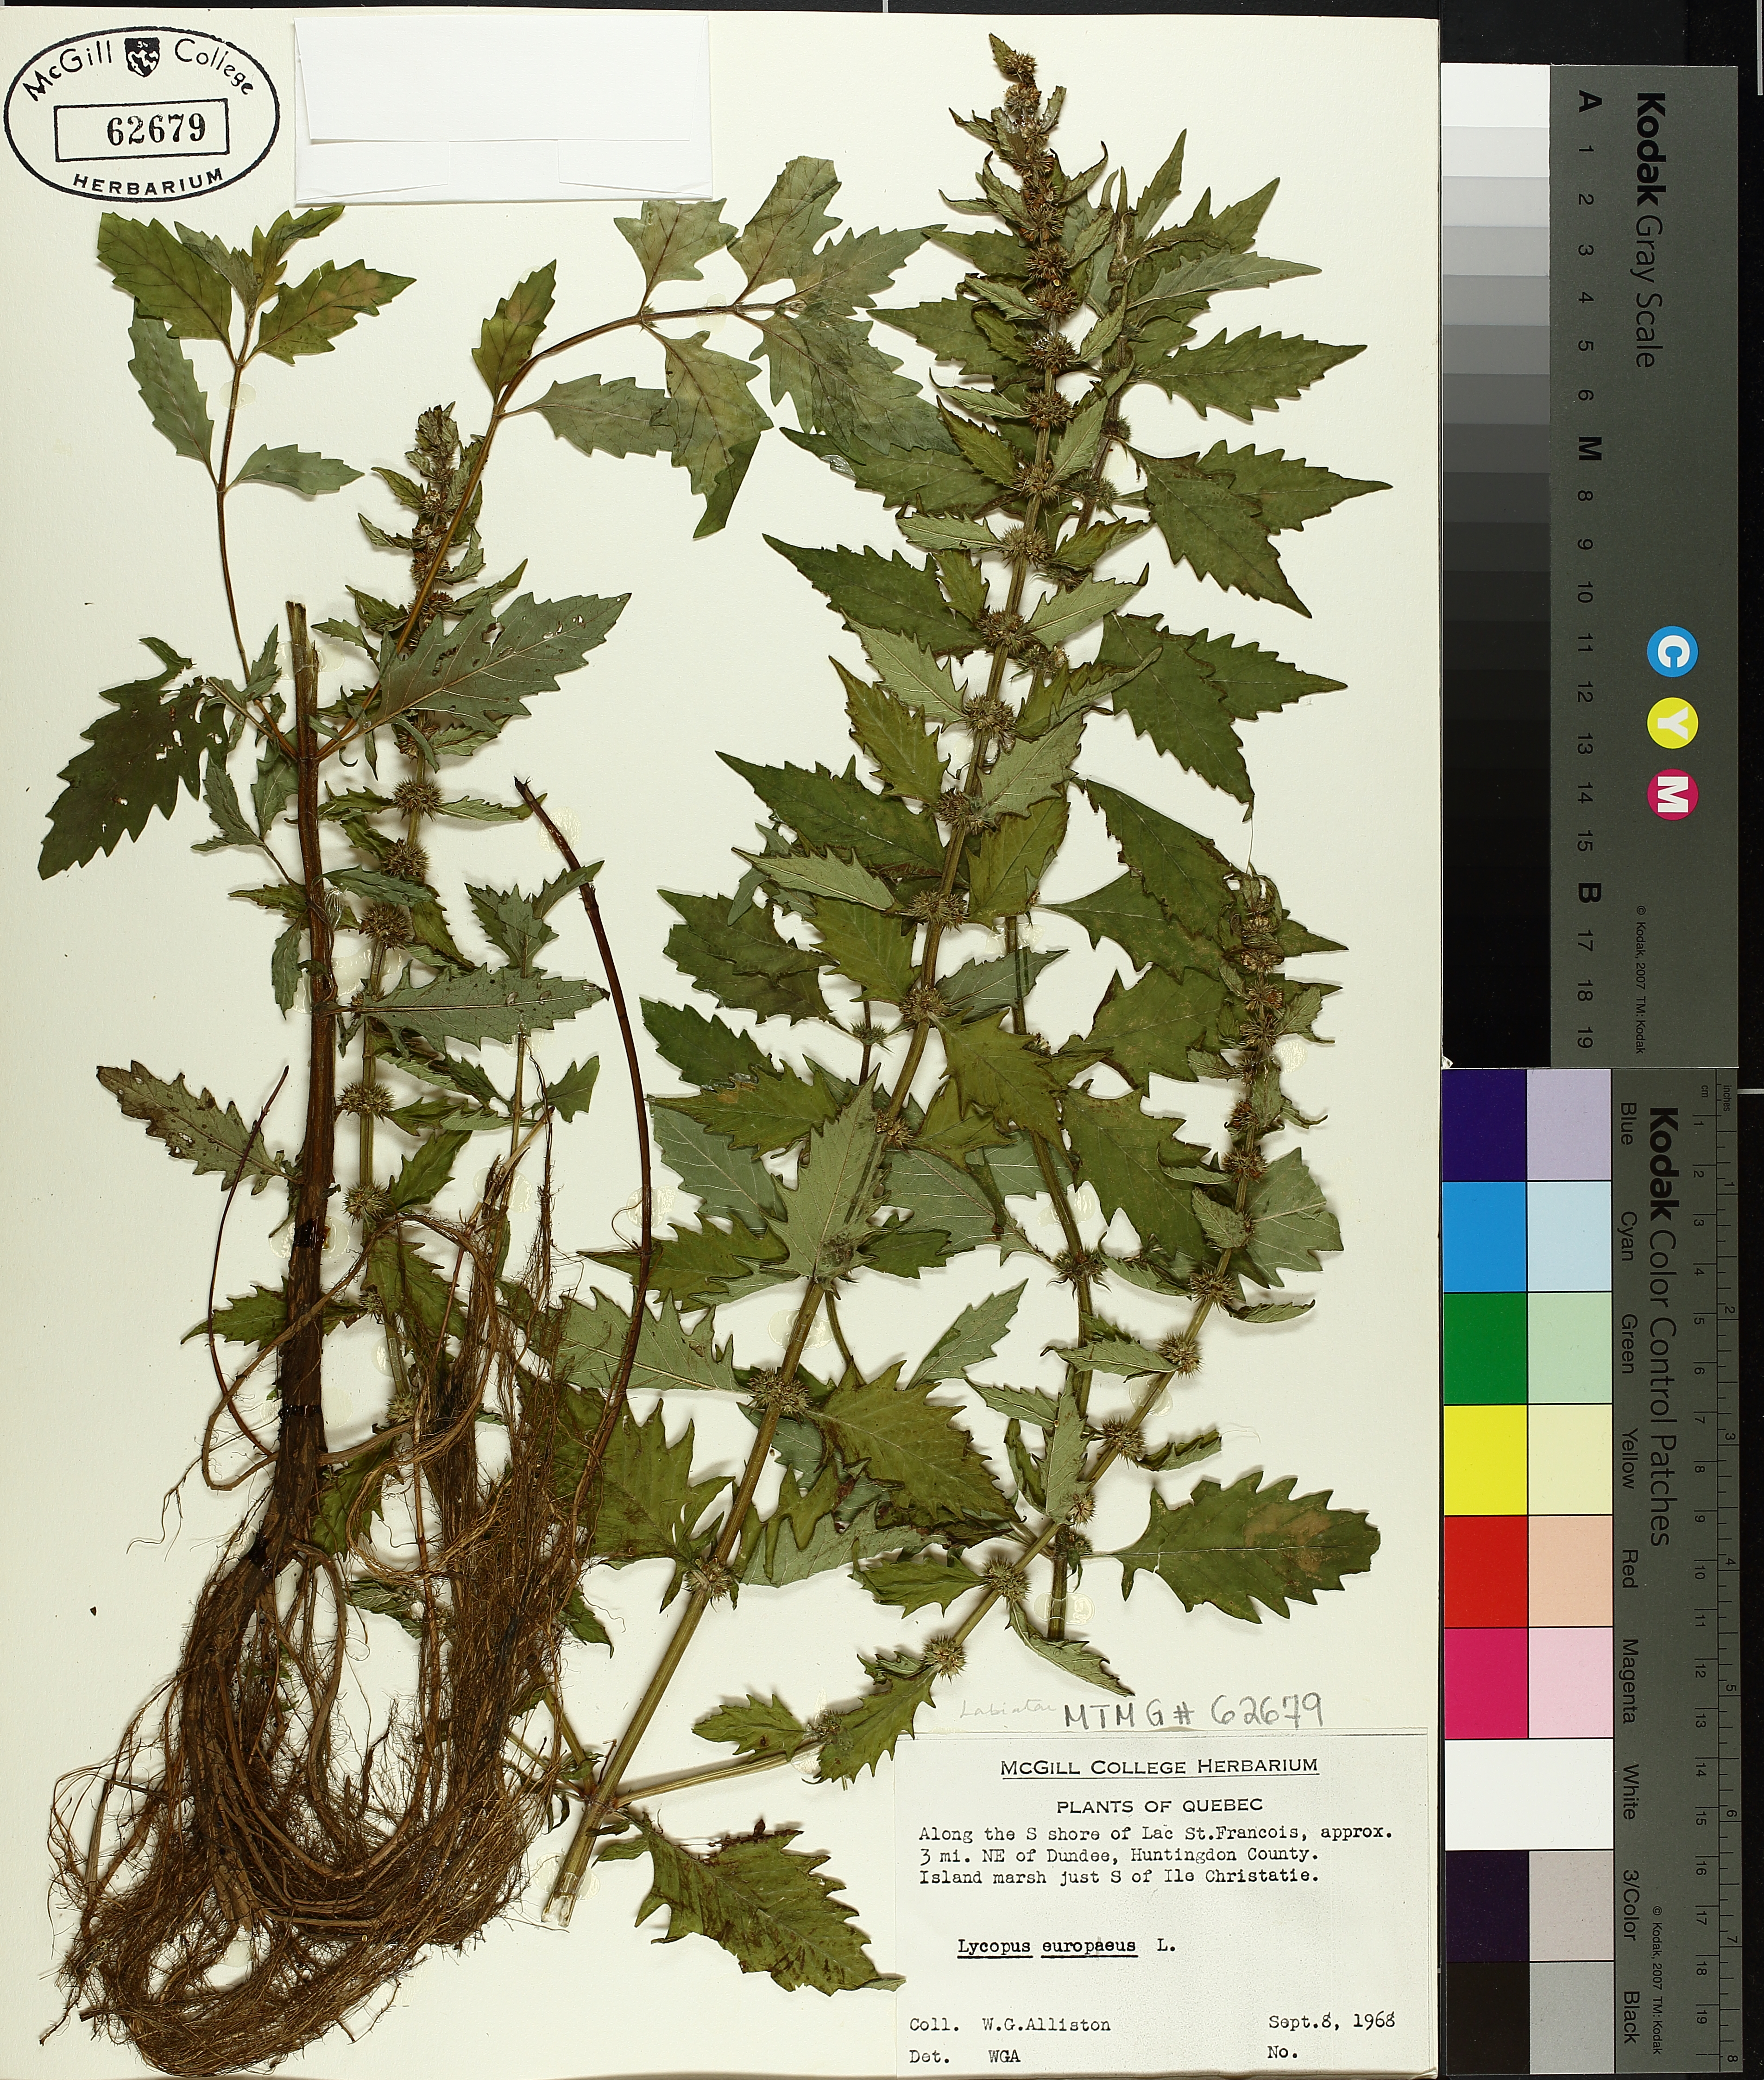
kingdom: Plantae
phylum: Tracheophyta
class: Magnoliopsida
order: Lamiales
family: Lamiaceae
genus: Lycopus
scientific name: Lycopus europaeus
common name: European bugleweed
